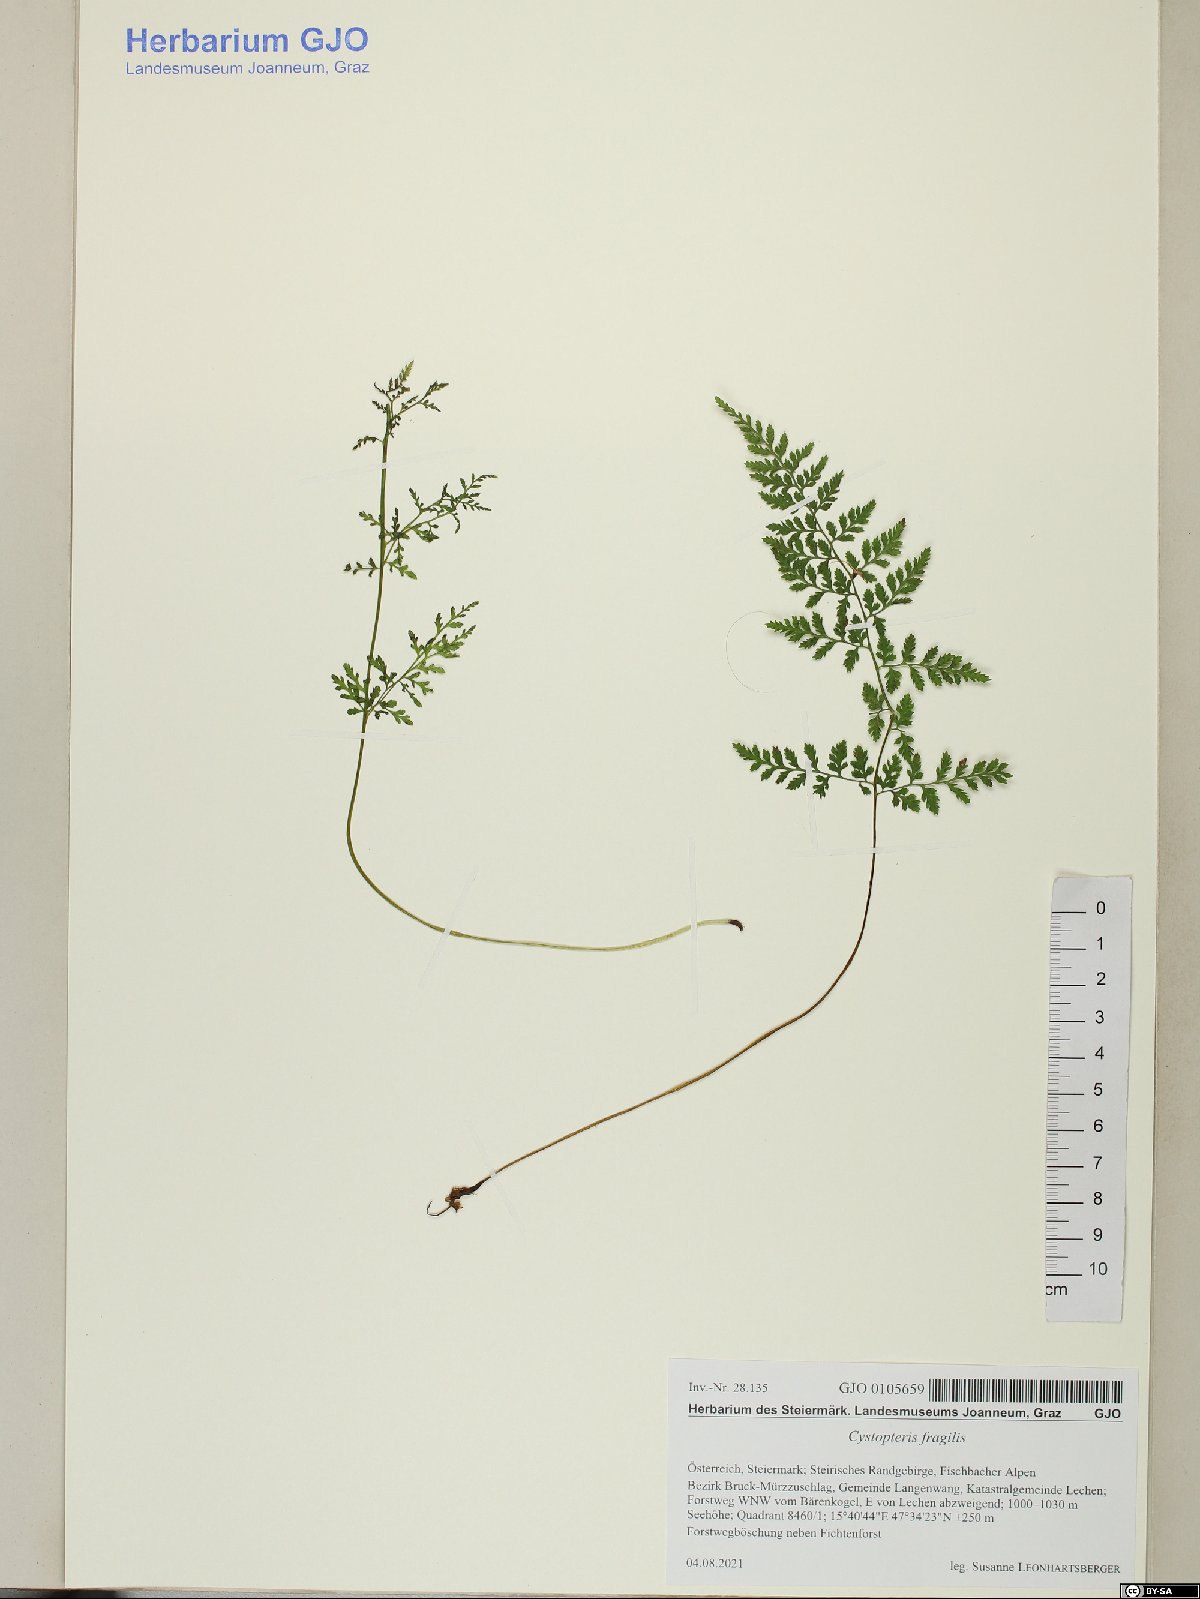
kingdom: Plantae
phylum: Tracheophyta
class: Polypodiopsida
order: Polypodiales
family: Cystopteridaceae
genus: Cystopteris
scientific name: Cystopteris fragilis
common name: Brittle bladder fern
